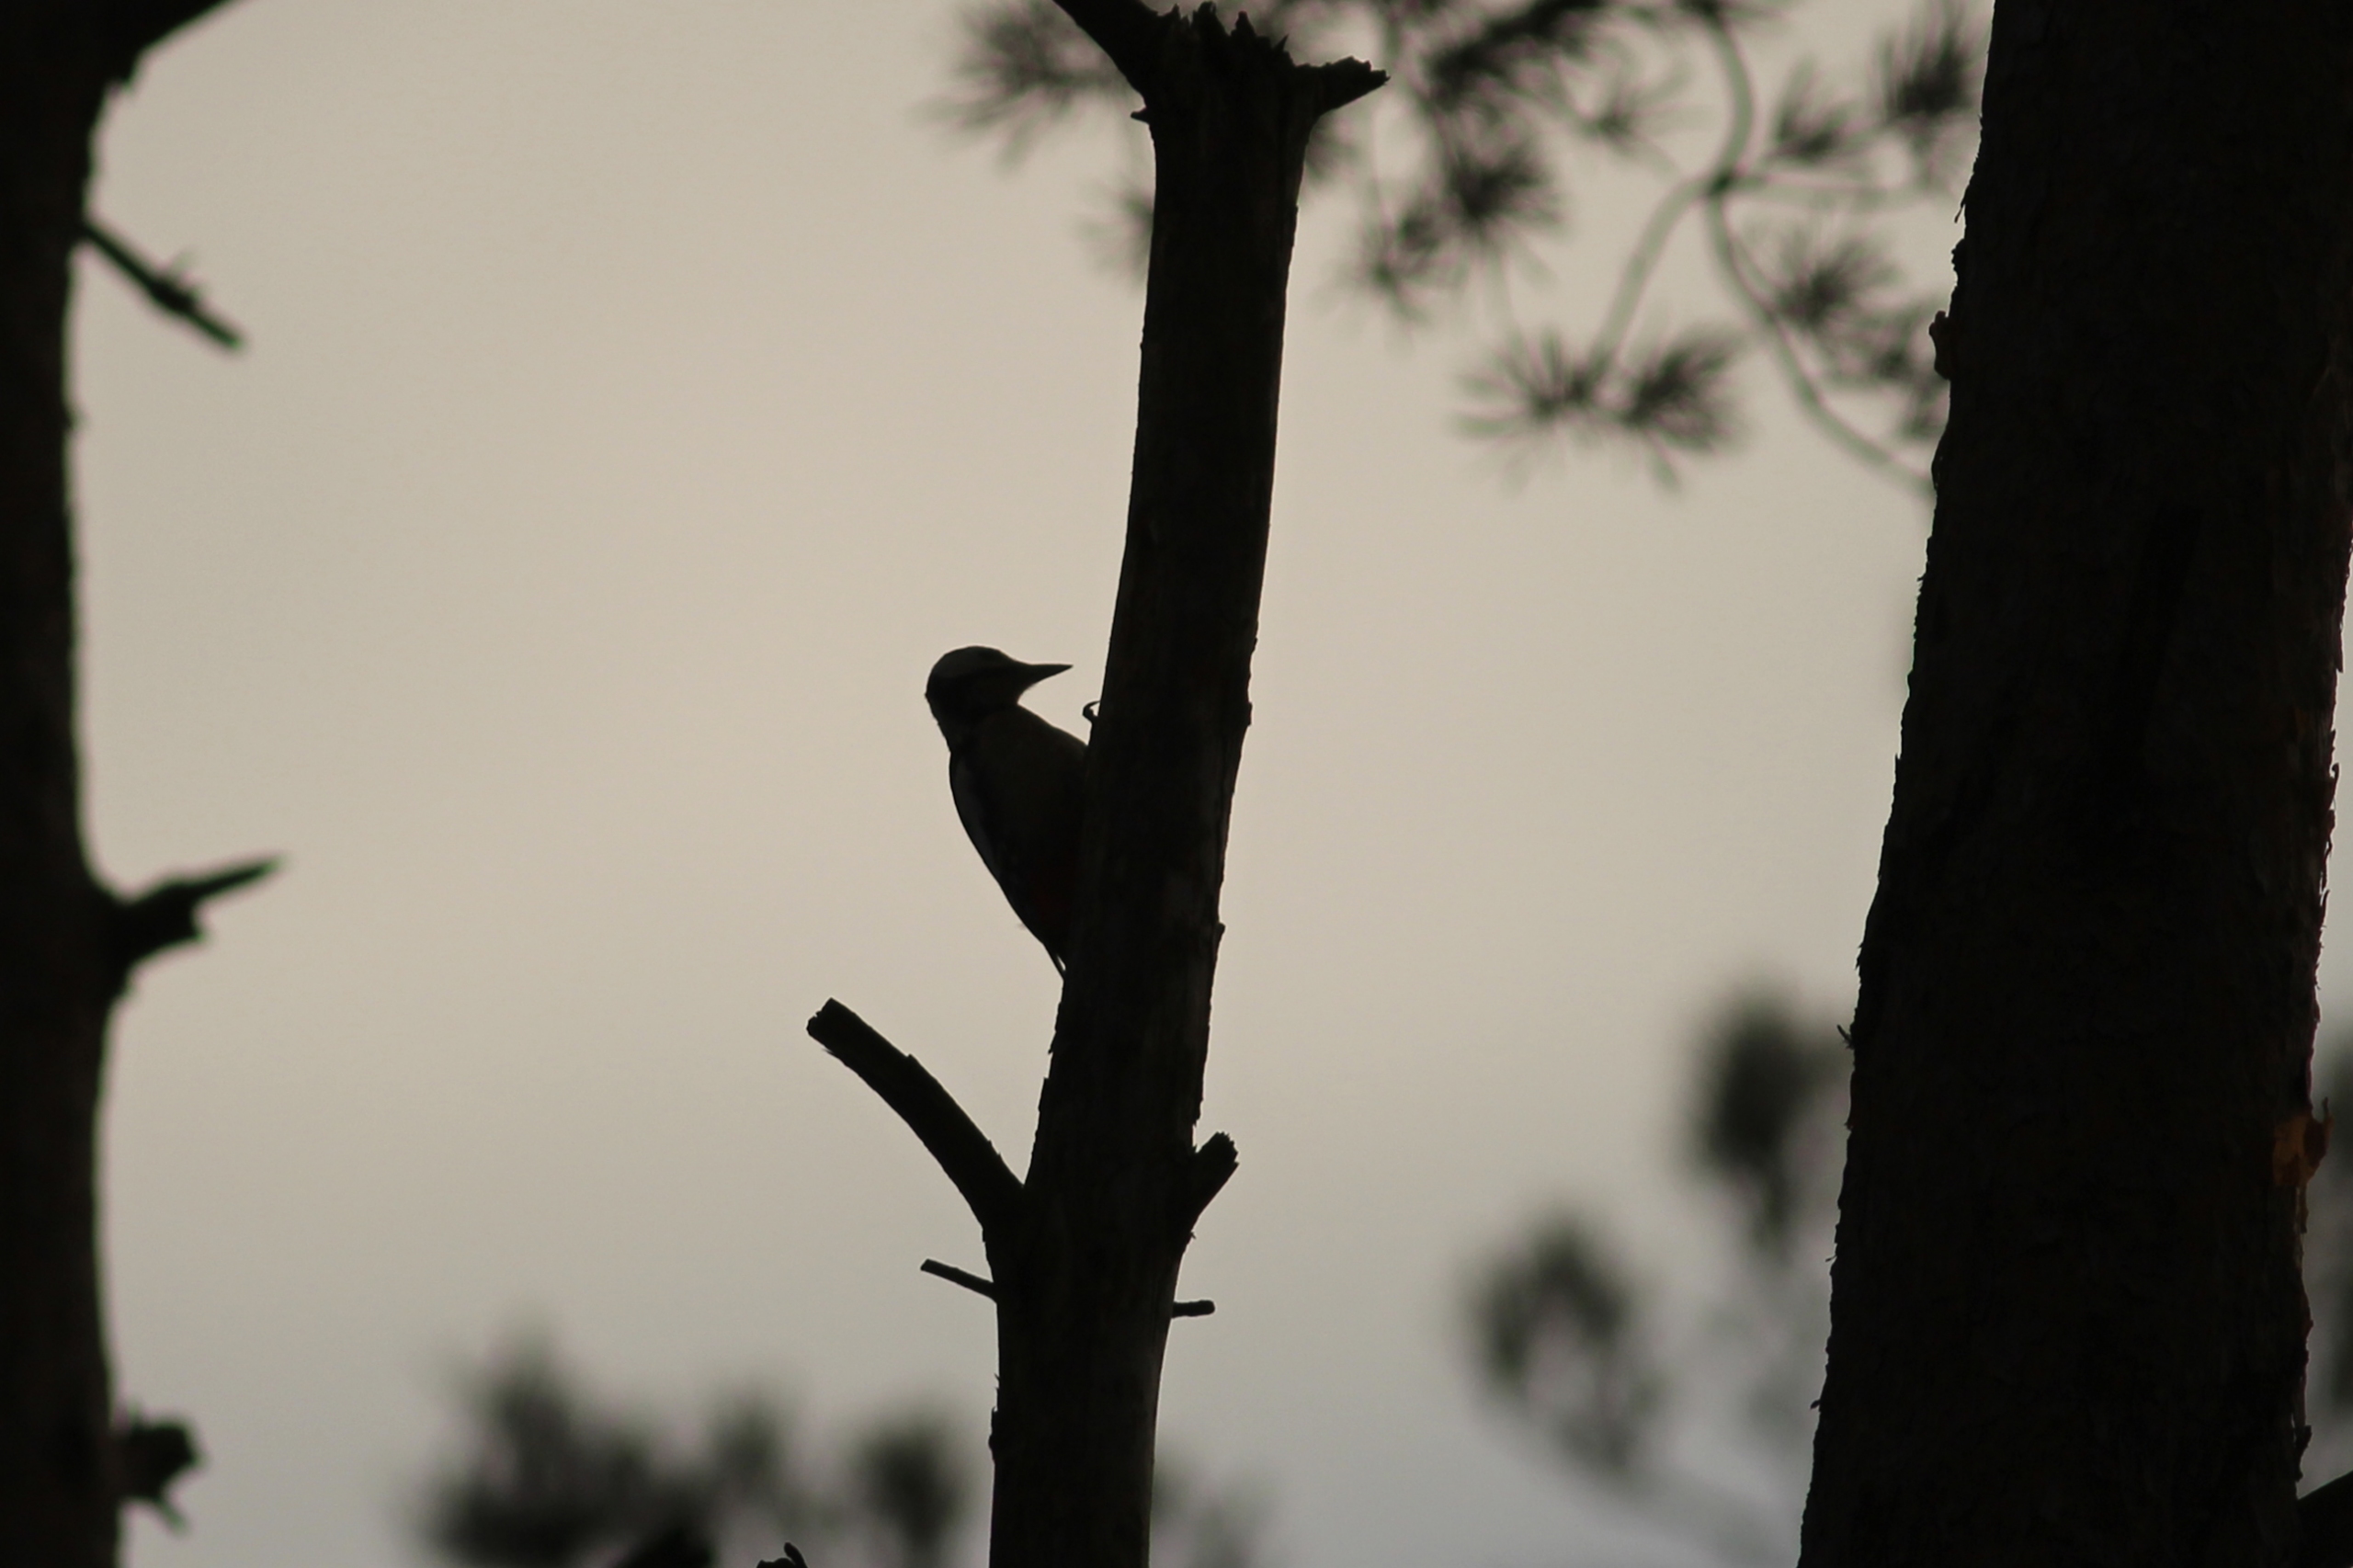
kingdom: Animalia
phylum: Chordata
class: Aves
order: Piciformes
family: Picidae
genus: Dendrocopos
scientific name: Dendrocopos major
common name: Stor flagspætte
